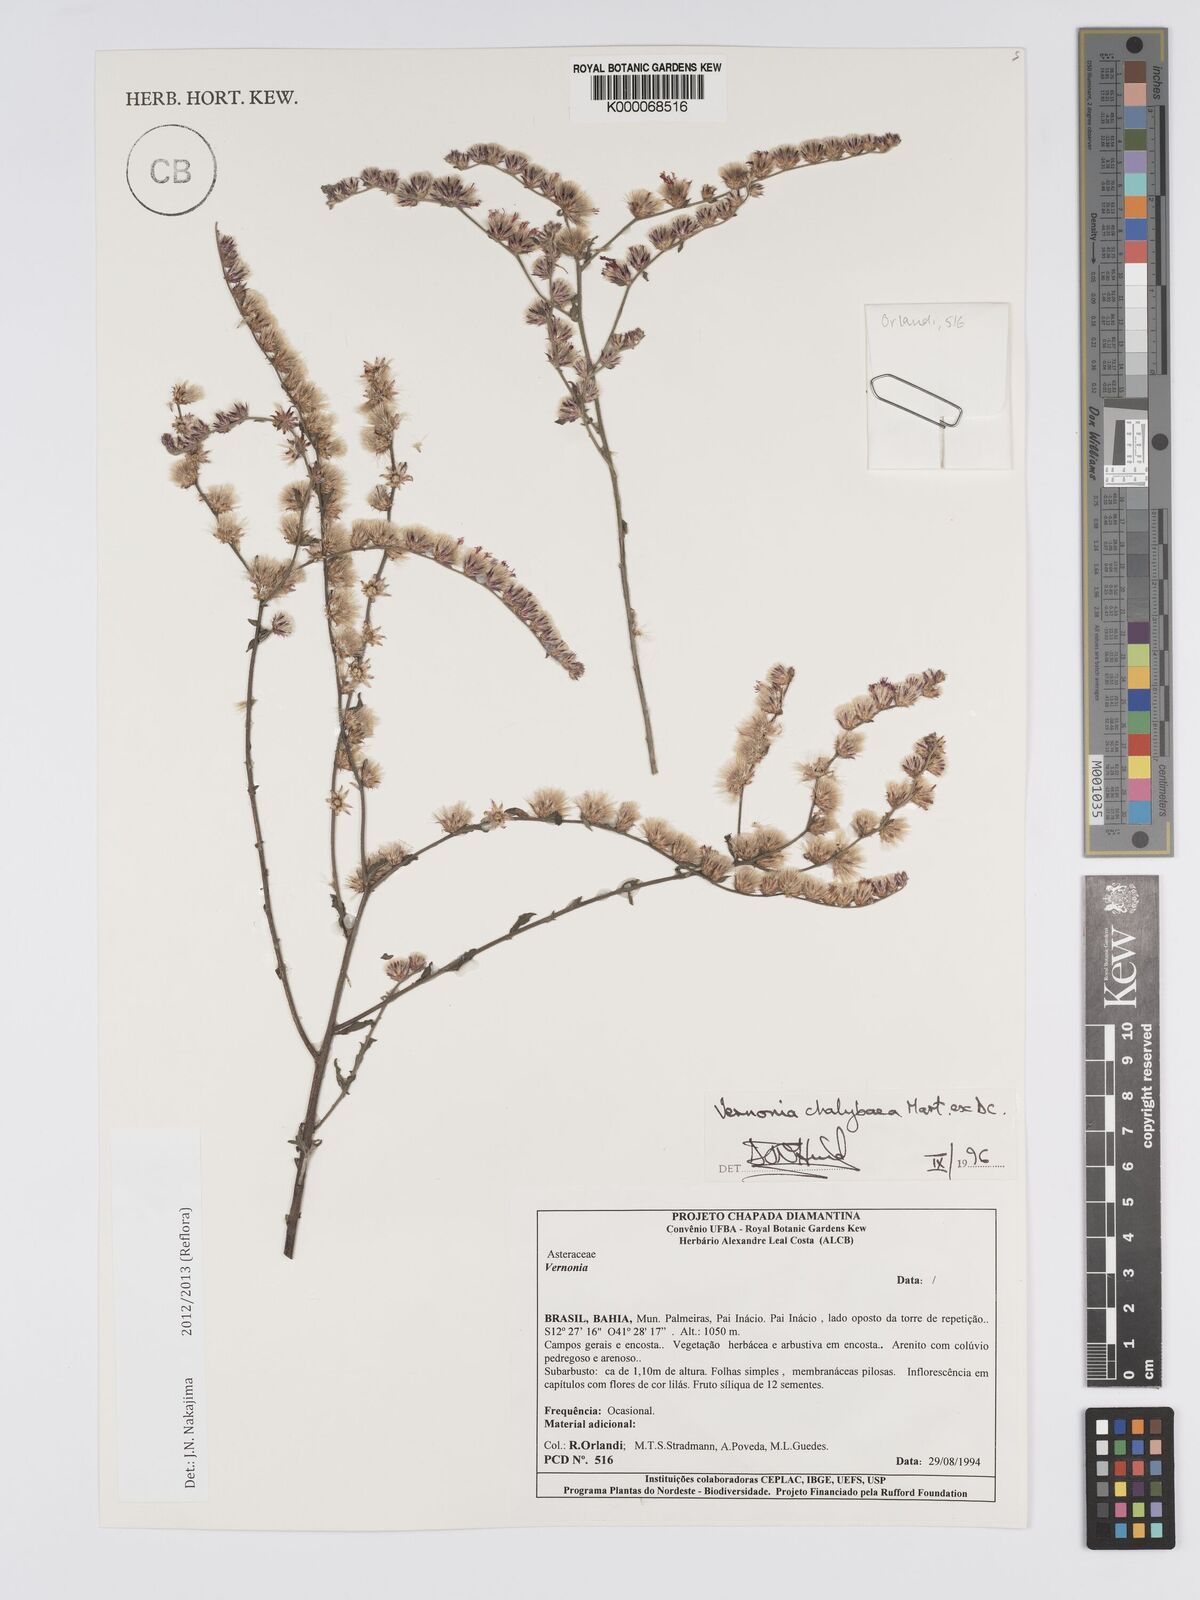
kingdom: Plantae
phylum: Tracheophyta
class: Magnoliopsida
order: Asterales
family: Asteraceae
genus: Lepidaploa
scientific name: Lepidaploa chalybaea
